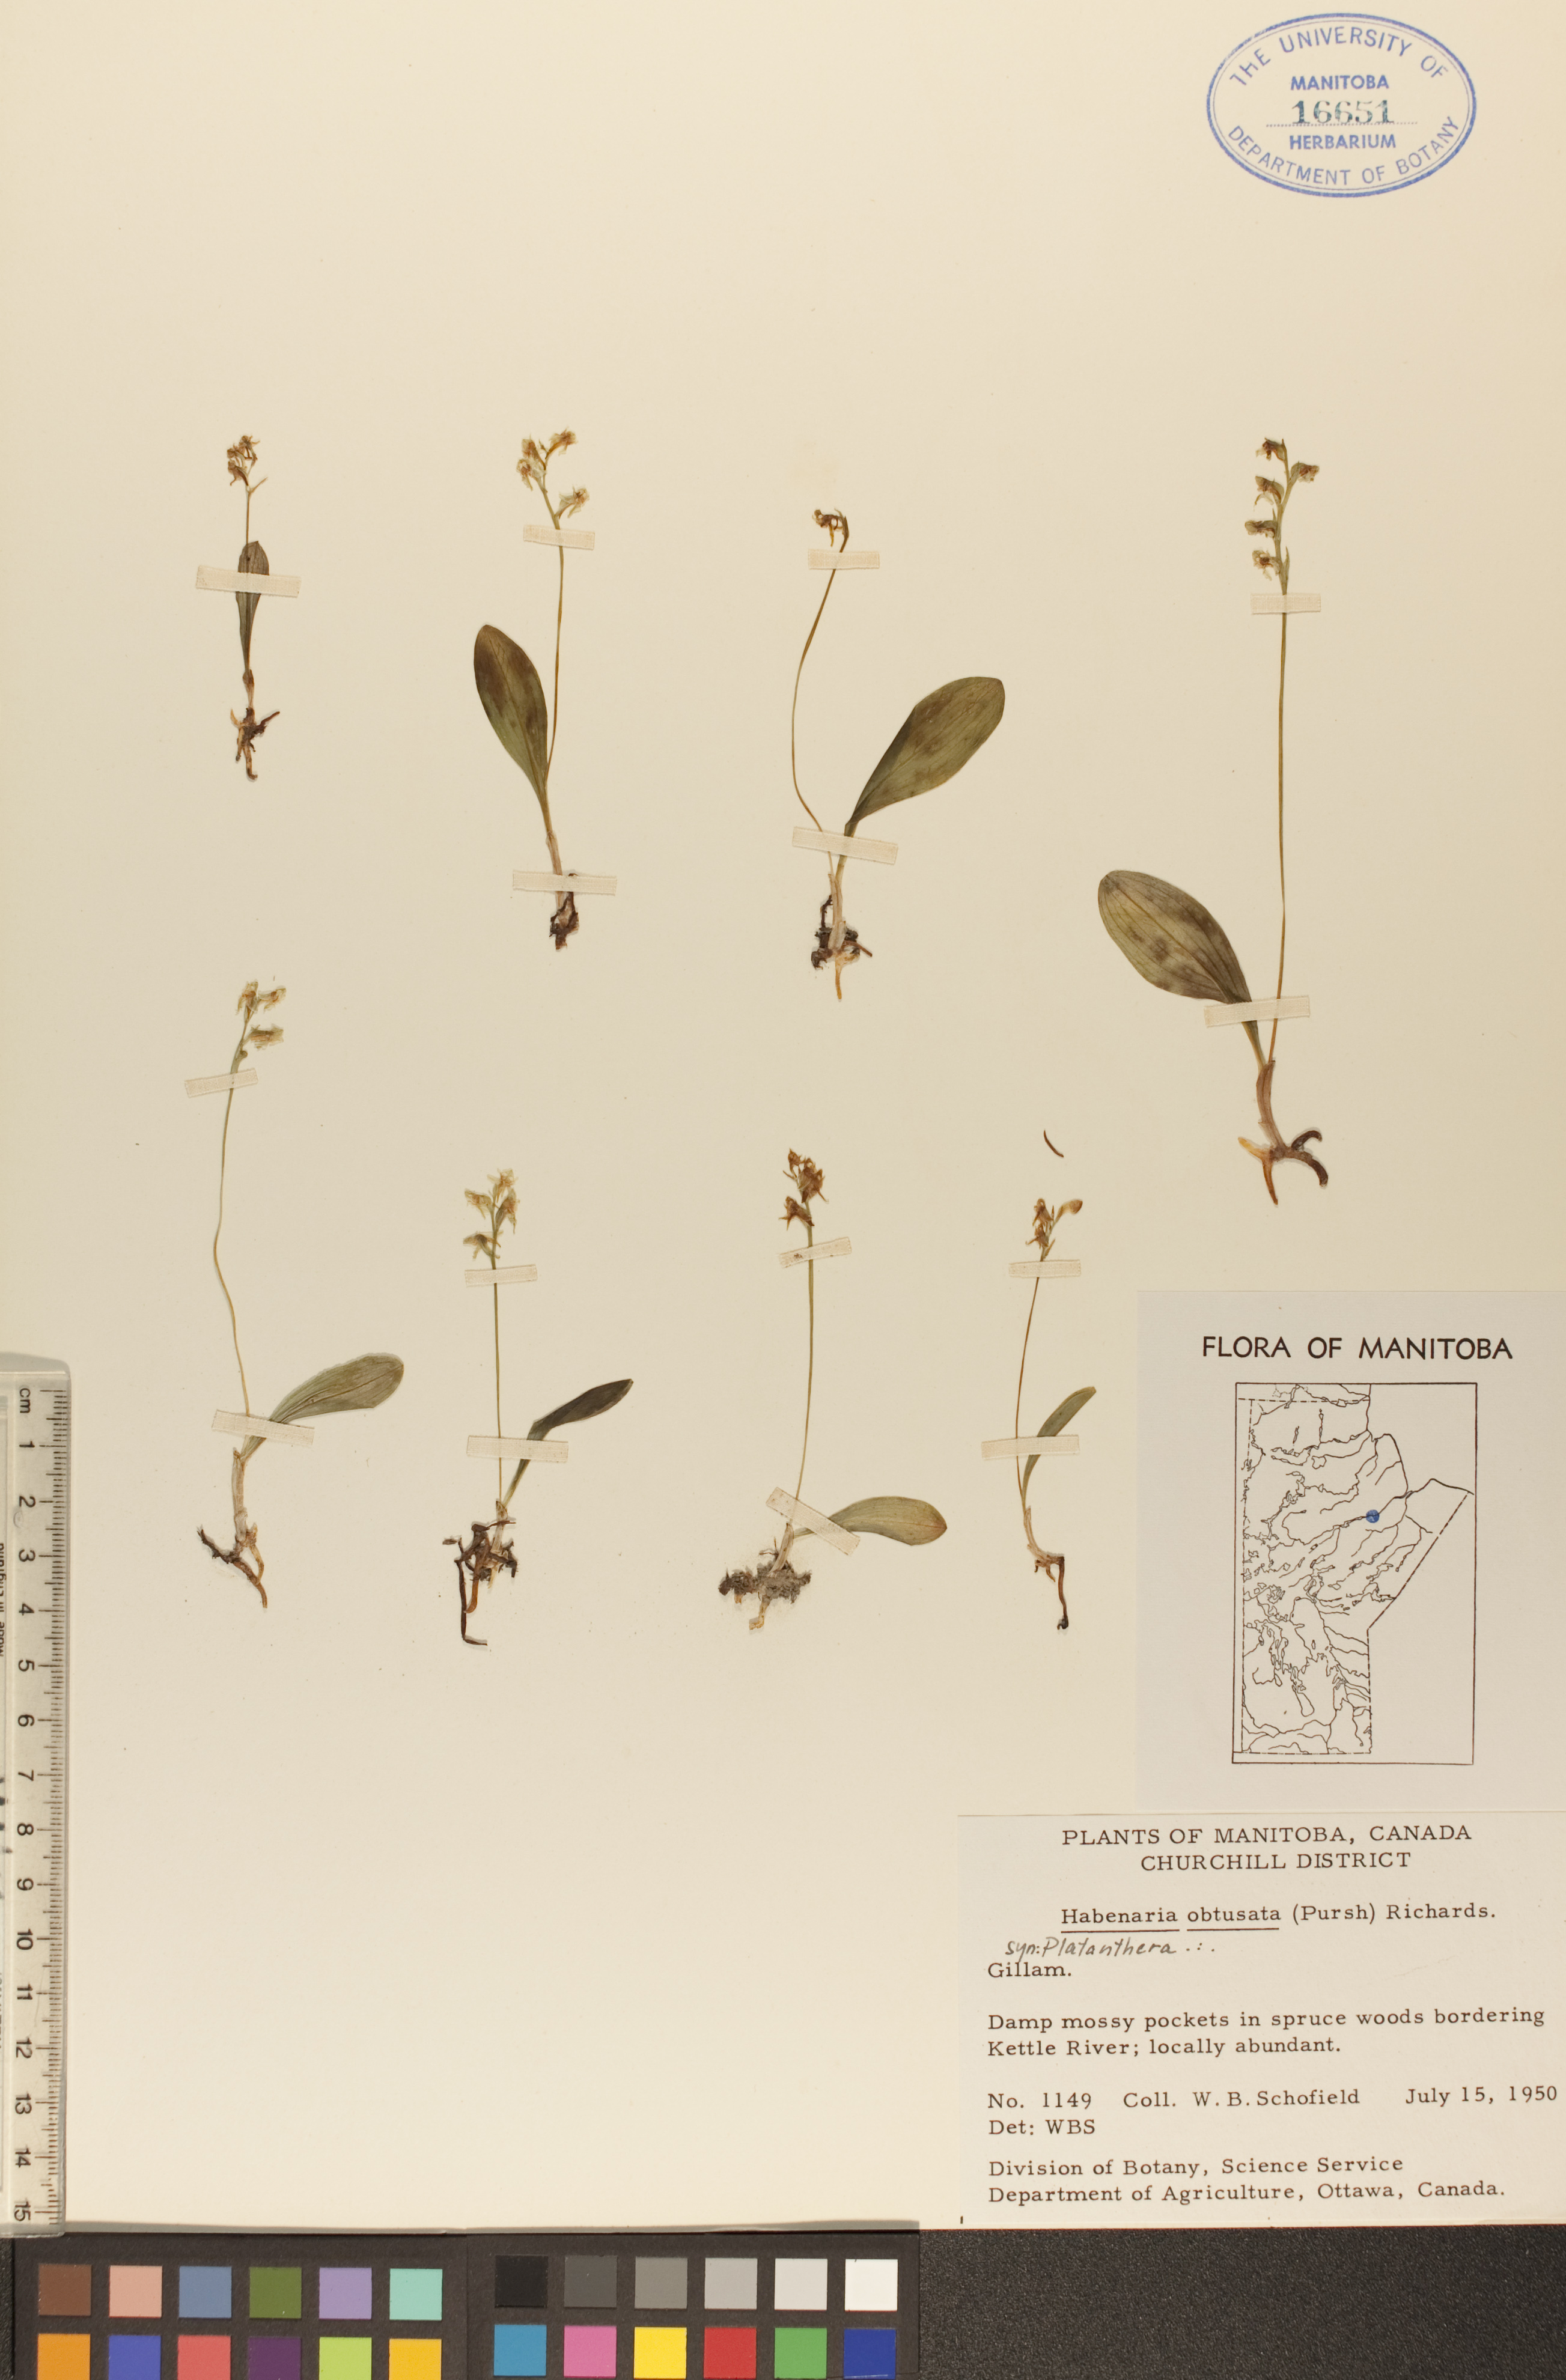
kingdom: Plantae
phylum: Tracheophyta
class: Liliopsida
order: Asparagales
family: Orchidaceae
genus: Platanthera
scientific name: Platanthera obtusata
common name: Blunt bog orchid
